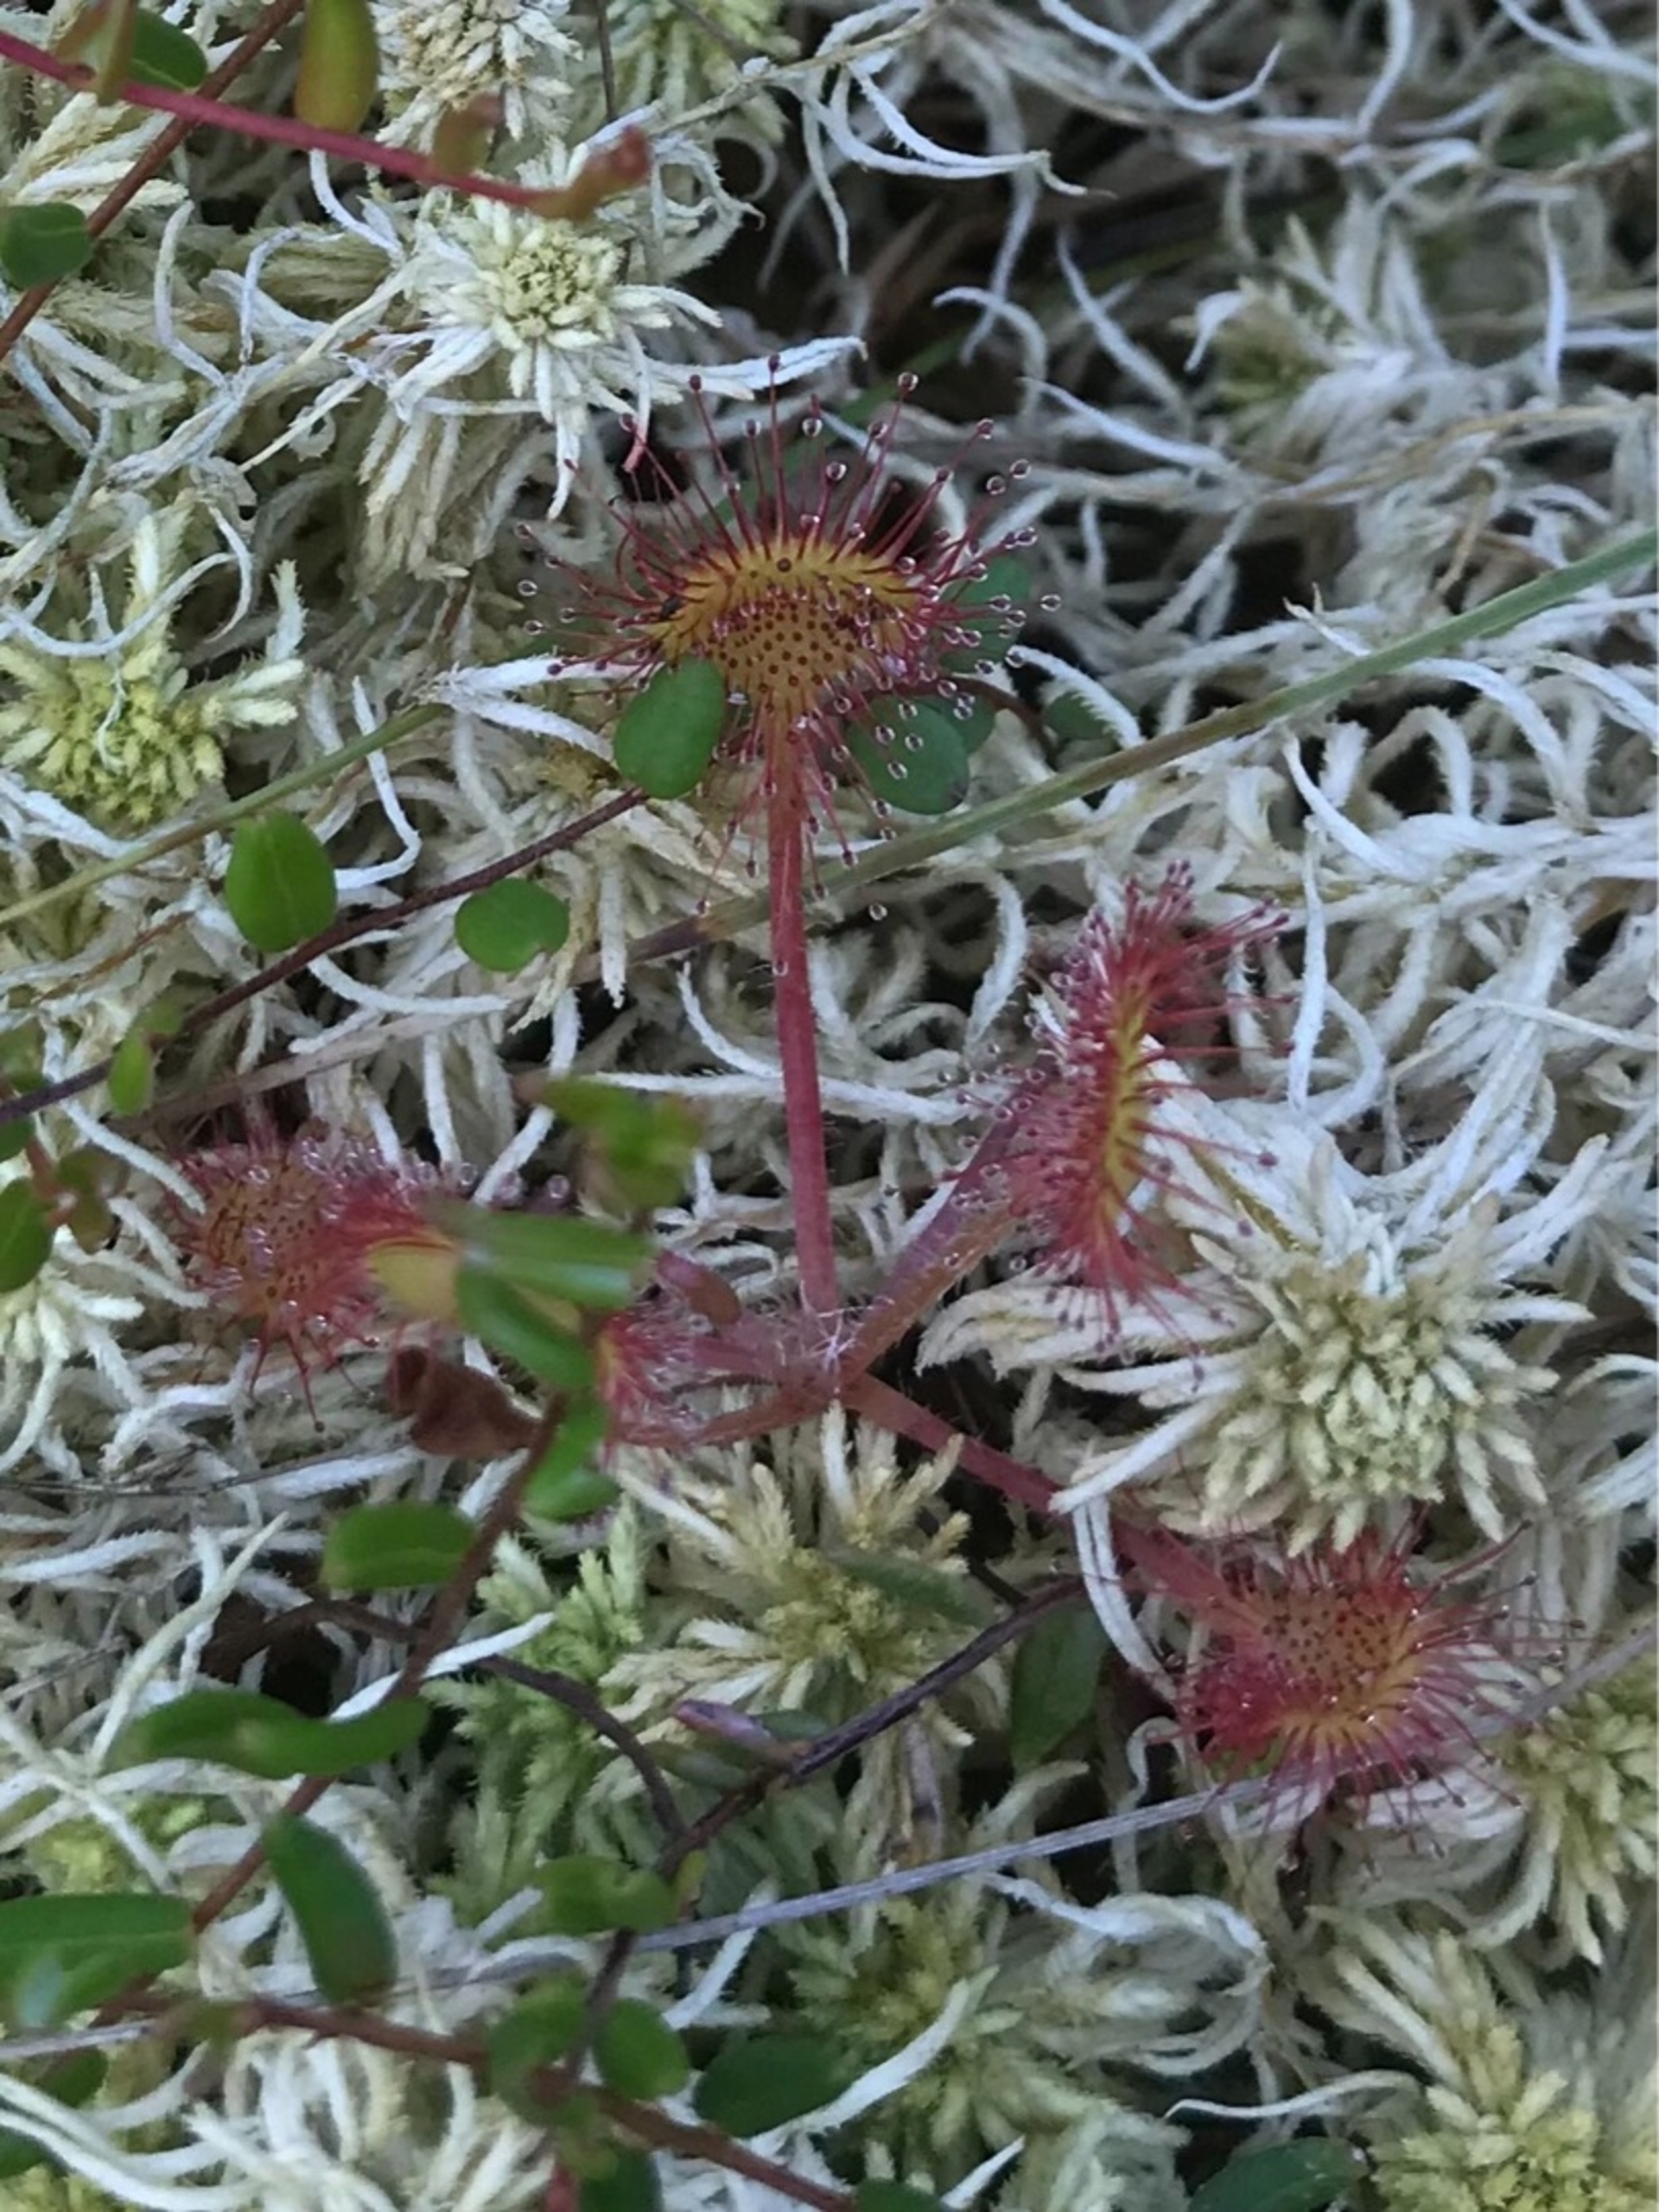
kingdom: Plantae
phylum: Tracheophyta
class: Magnoliopsida
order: Caryophyllales
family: Droseraceae
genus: Drosera
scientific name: Drosera rotundifolia
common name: Rundbladet soldug
